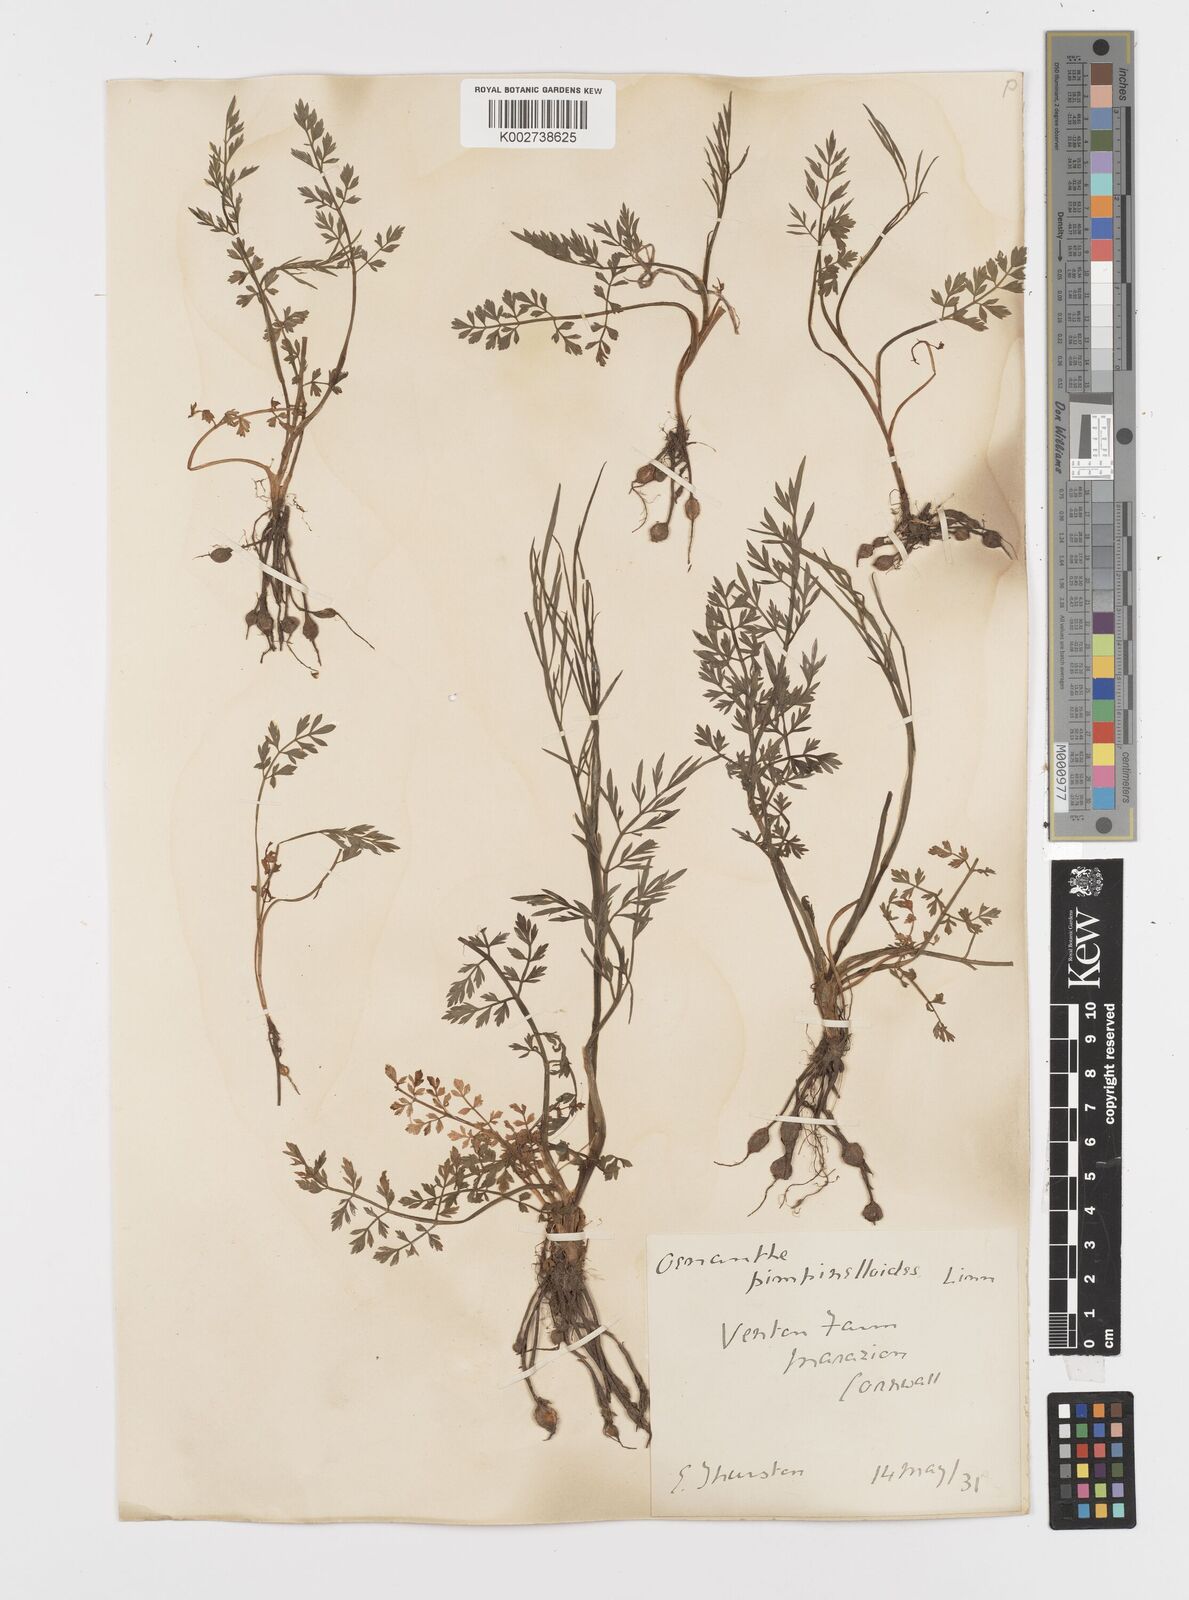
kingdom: Plantae
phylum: Tracheophyta
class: Magnoliopsida
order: Apiales
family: Apiaceae
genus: Oenanthe
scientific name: Oenanthe pimpinelloides
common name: Corky-fruited water-dropwort
